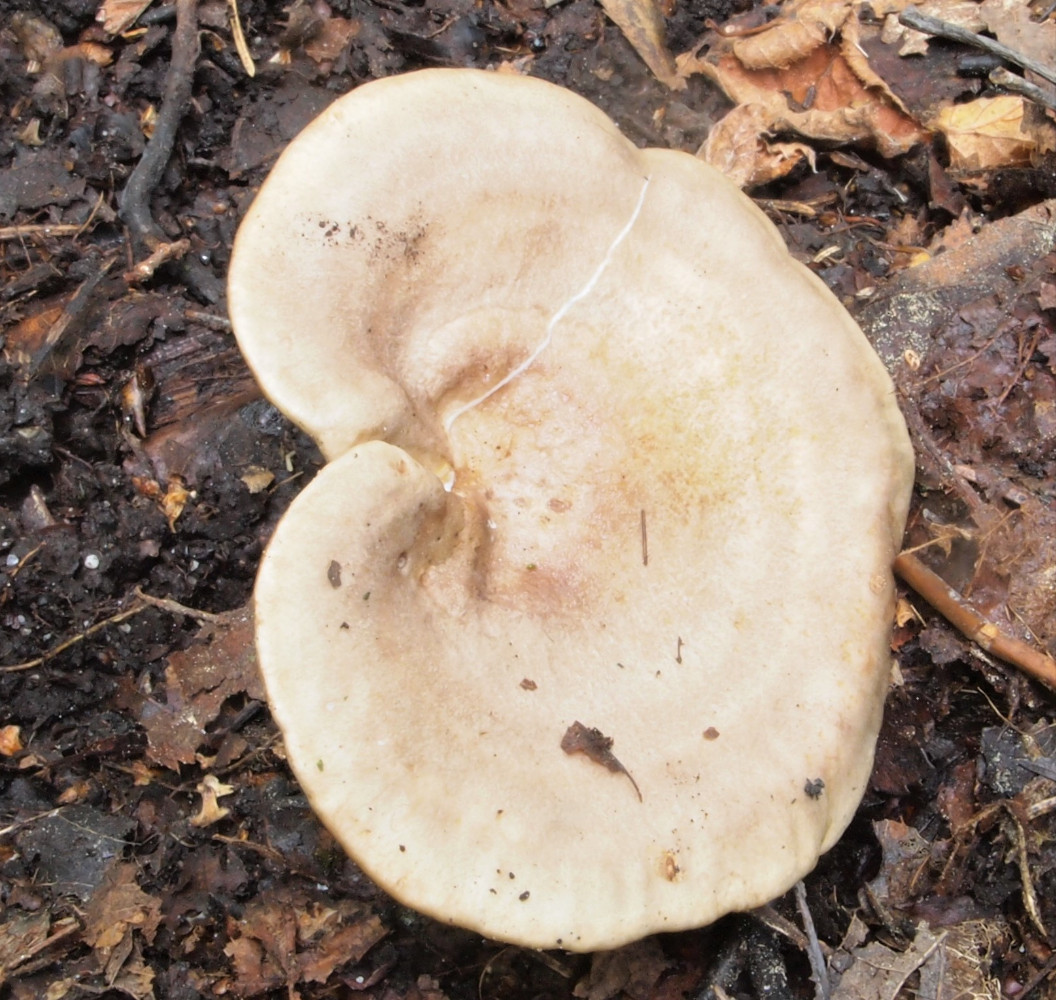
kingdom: Fungi
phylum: Basidiomycota
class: Agaricomycetes
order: Russulales
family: Russulaceae
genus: Lactarius
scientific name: Lactarius pyrogalus
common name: hassel-mælkehat
